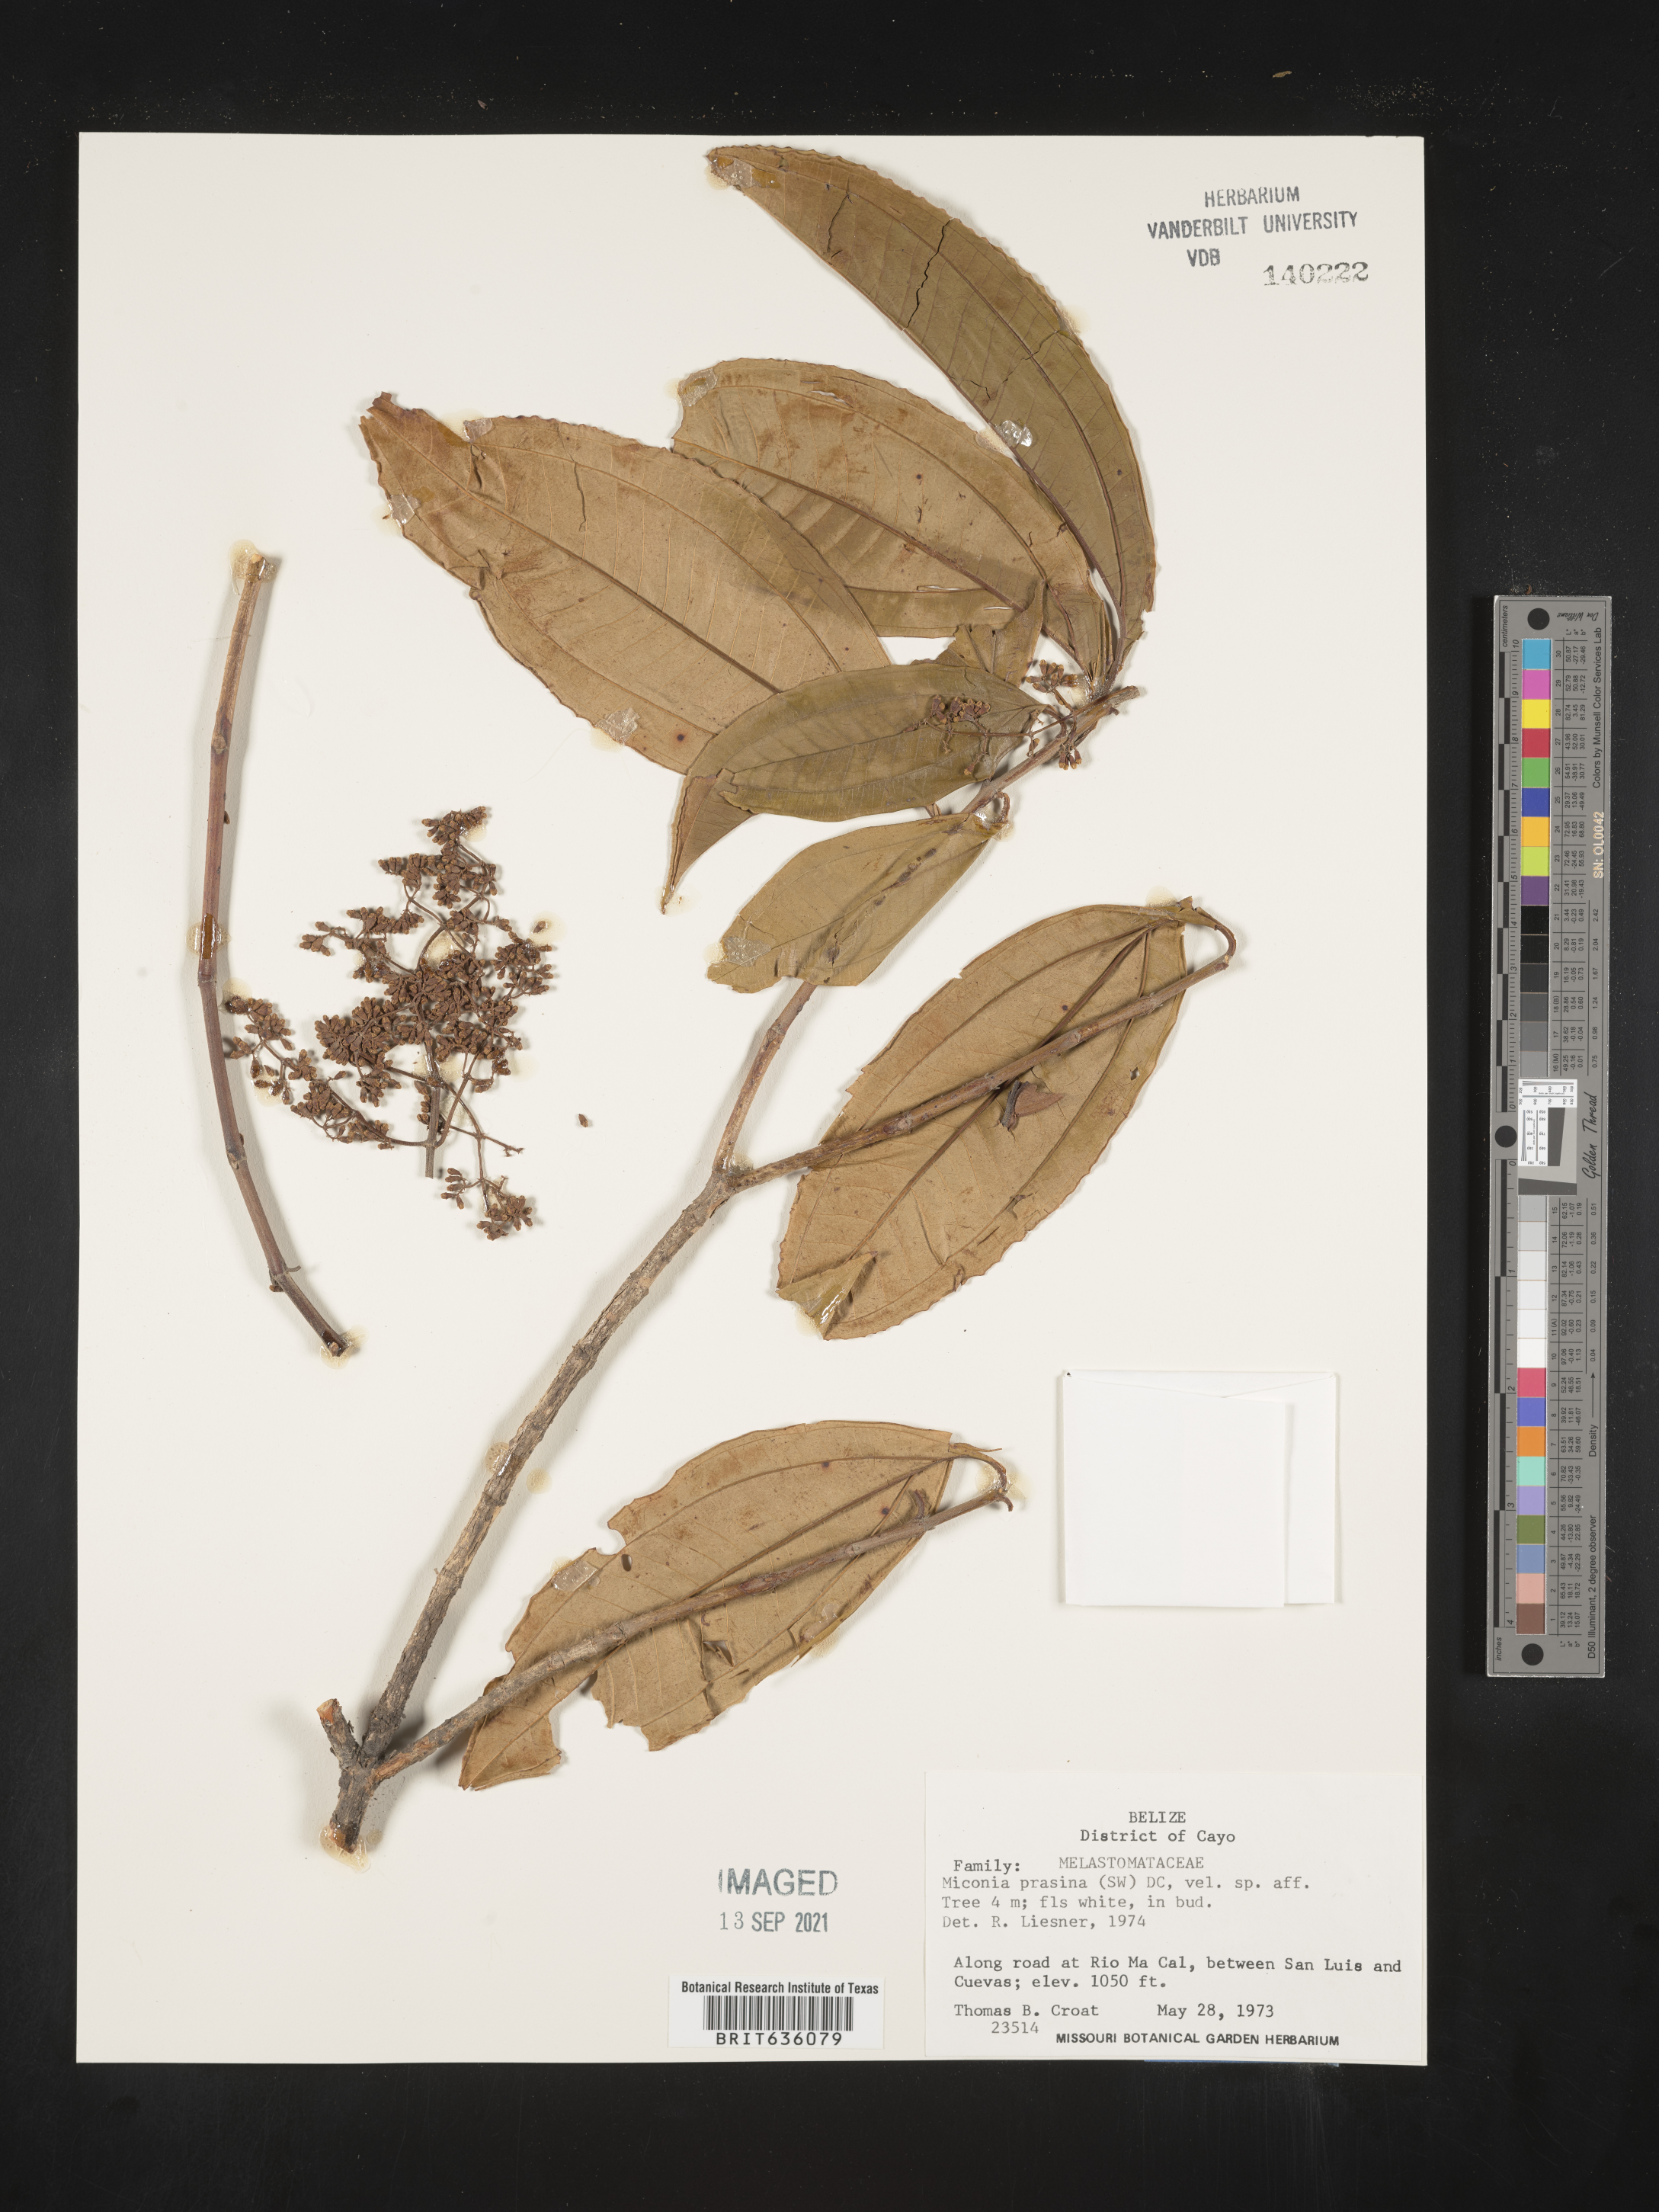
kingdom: Plantae
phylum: Tracheophyta
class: Magnoliopsida
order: Myrtales
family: Melastomataceae
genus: Miconia
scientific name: Miconia
